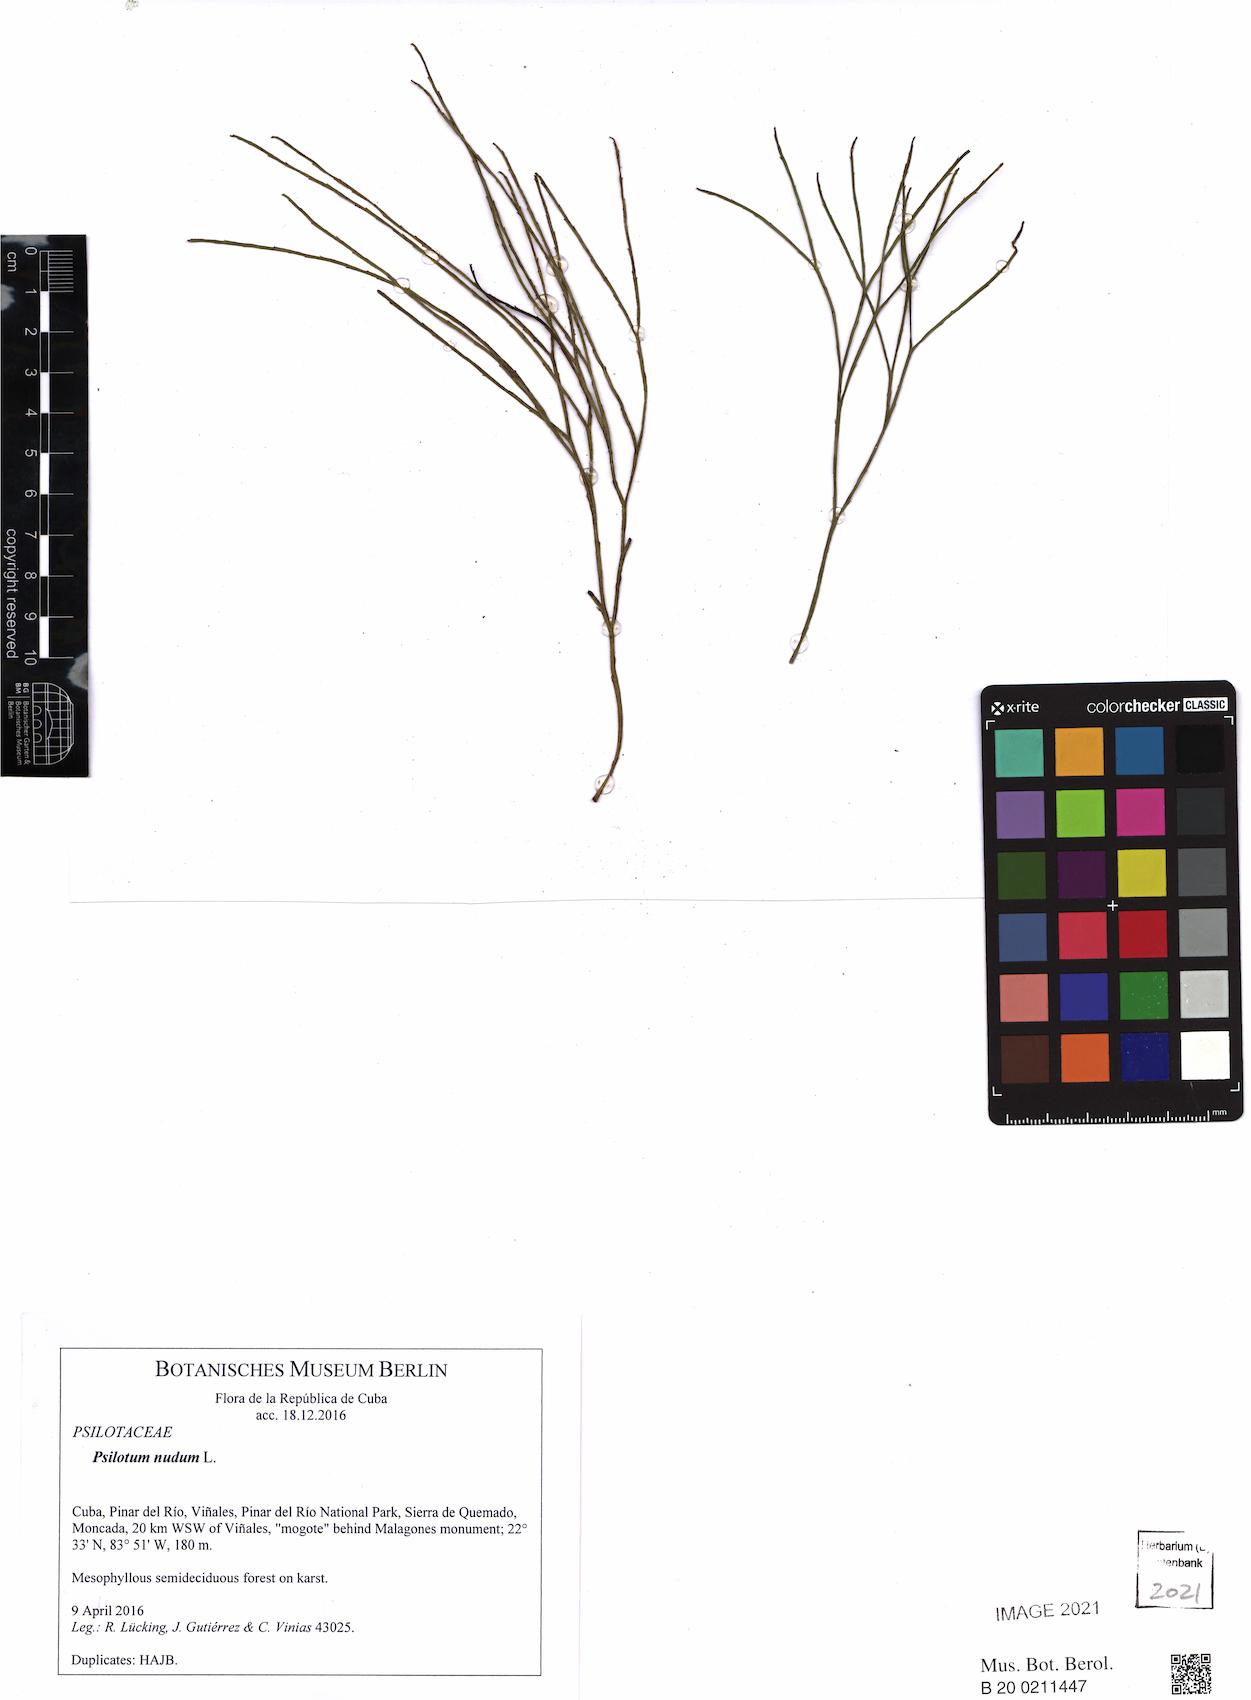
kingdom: Plantae
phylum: Tracheophyta
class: Polypodiopsida
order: Psilotales
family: Psilotaceae
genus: Psilotum
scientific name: Psilotum nudum
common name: Skeleton fork fern
